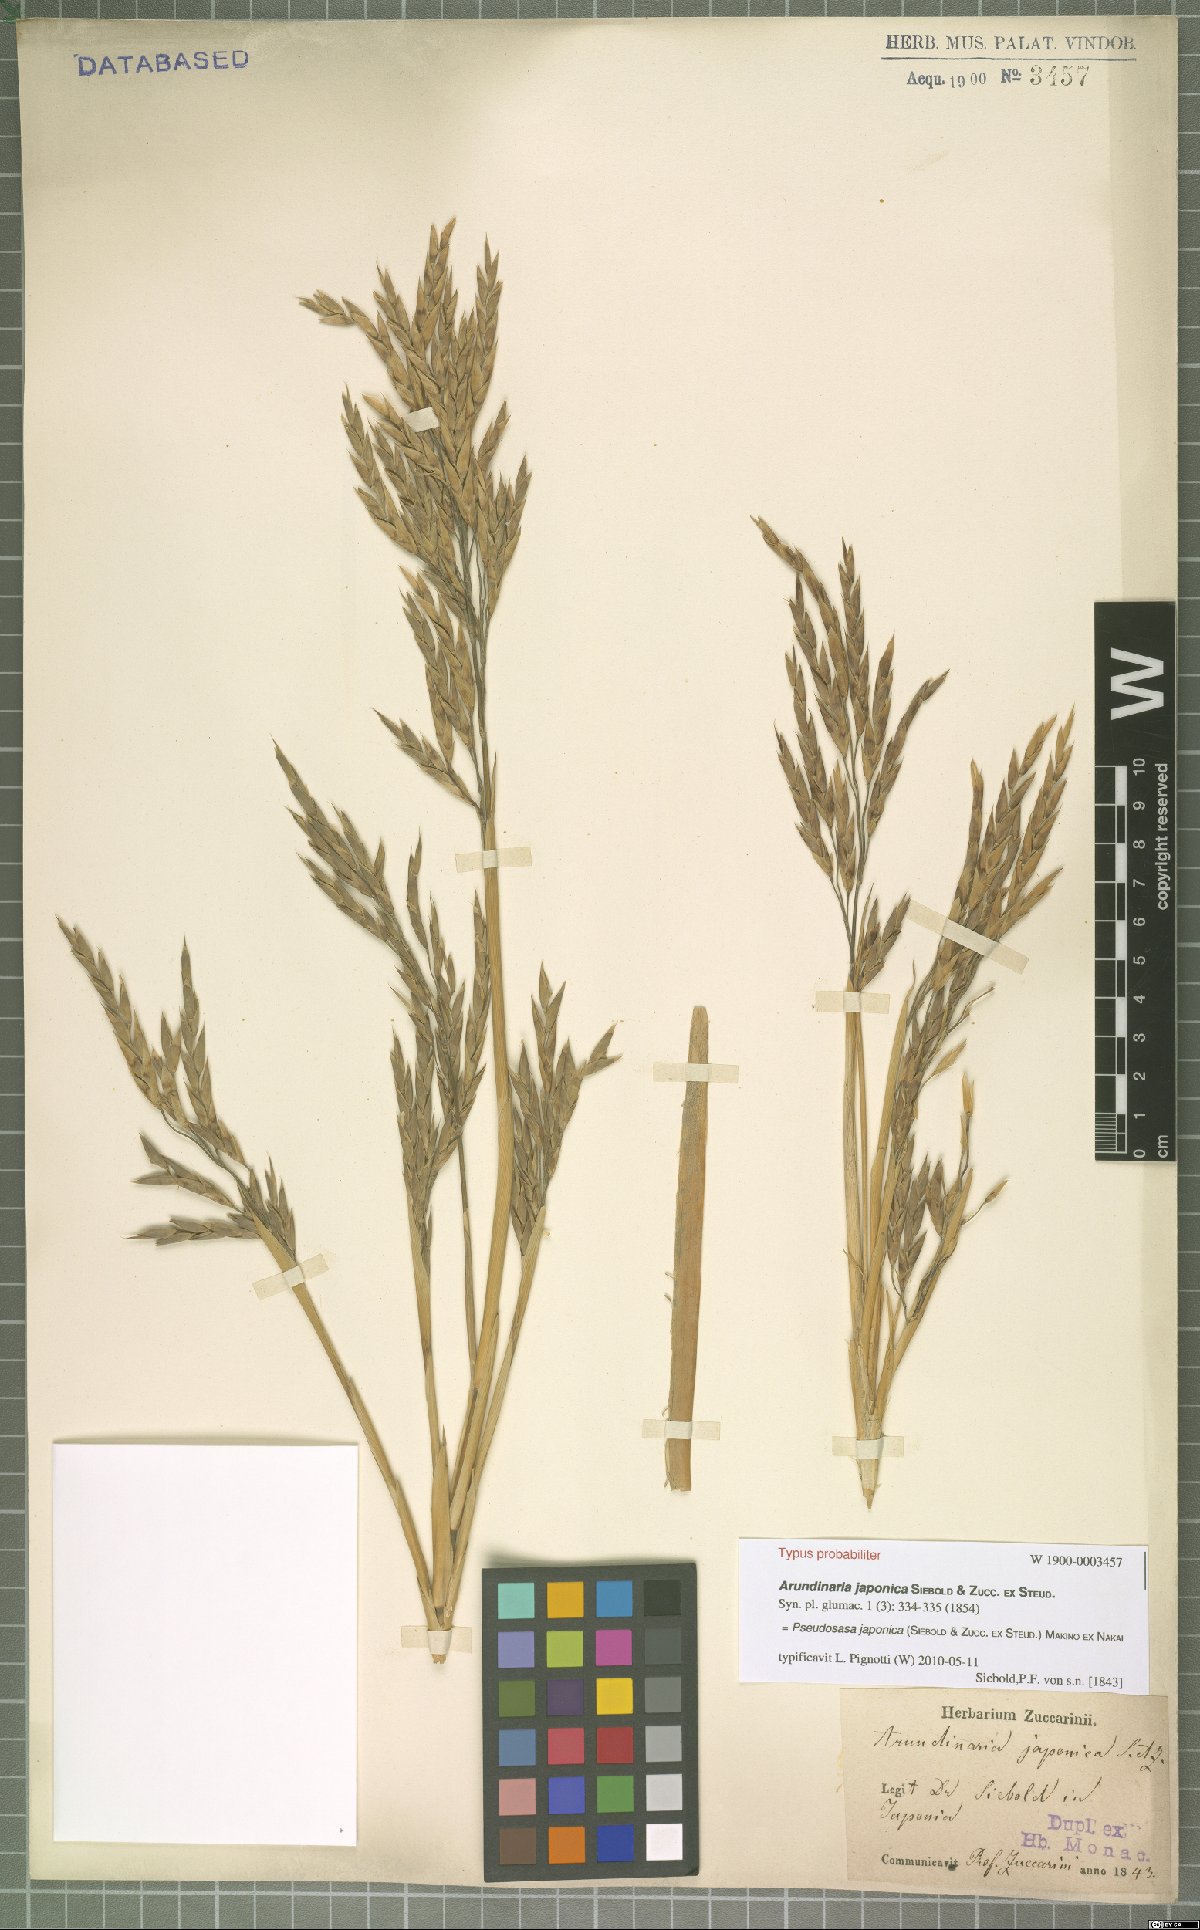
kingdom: Plantae
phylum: Tracheophyta
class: Liliopsida
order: Poales
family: Poaceae
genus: Pseudosasa
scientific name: Pseudosasa japonica
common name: Arrow bamboo
